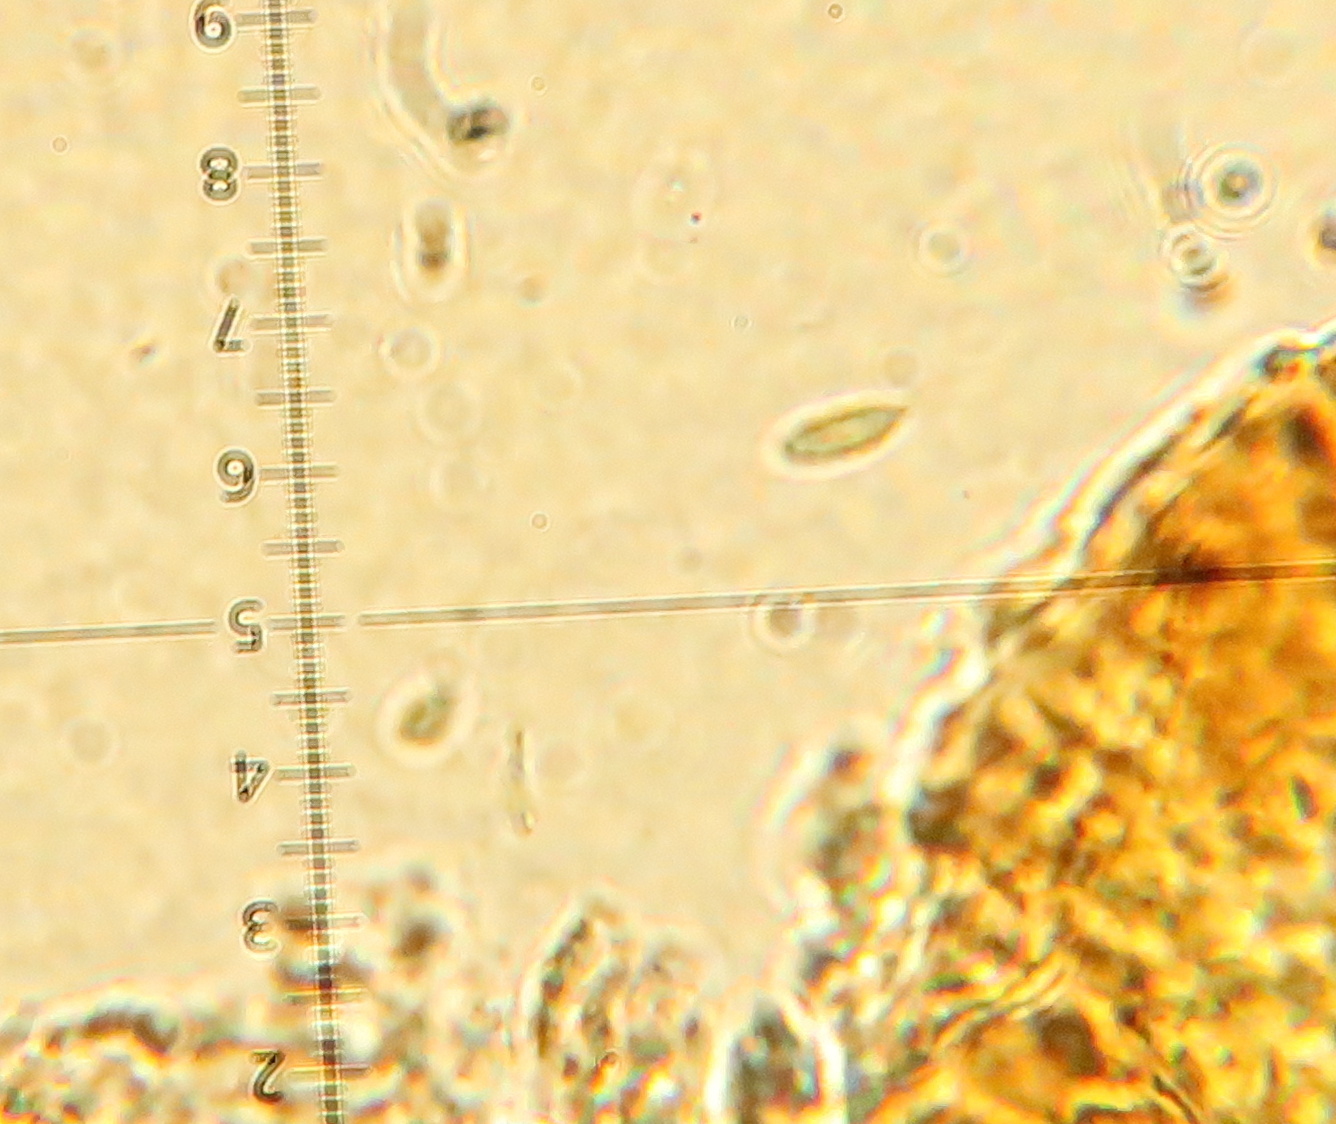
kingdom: Fungi
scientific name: Fungi
